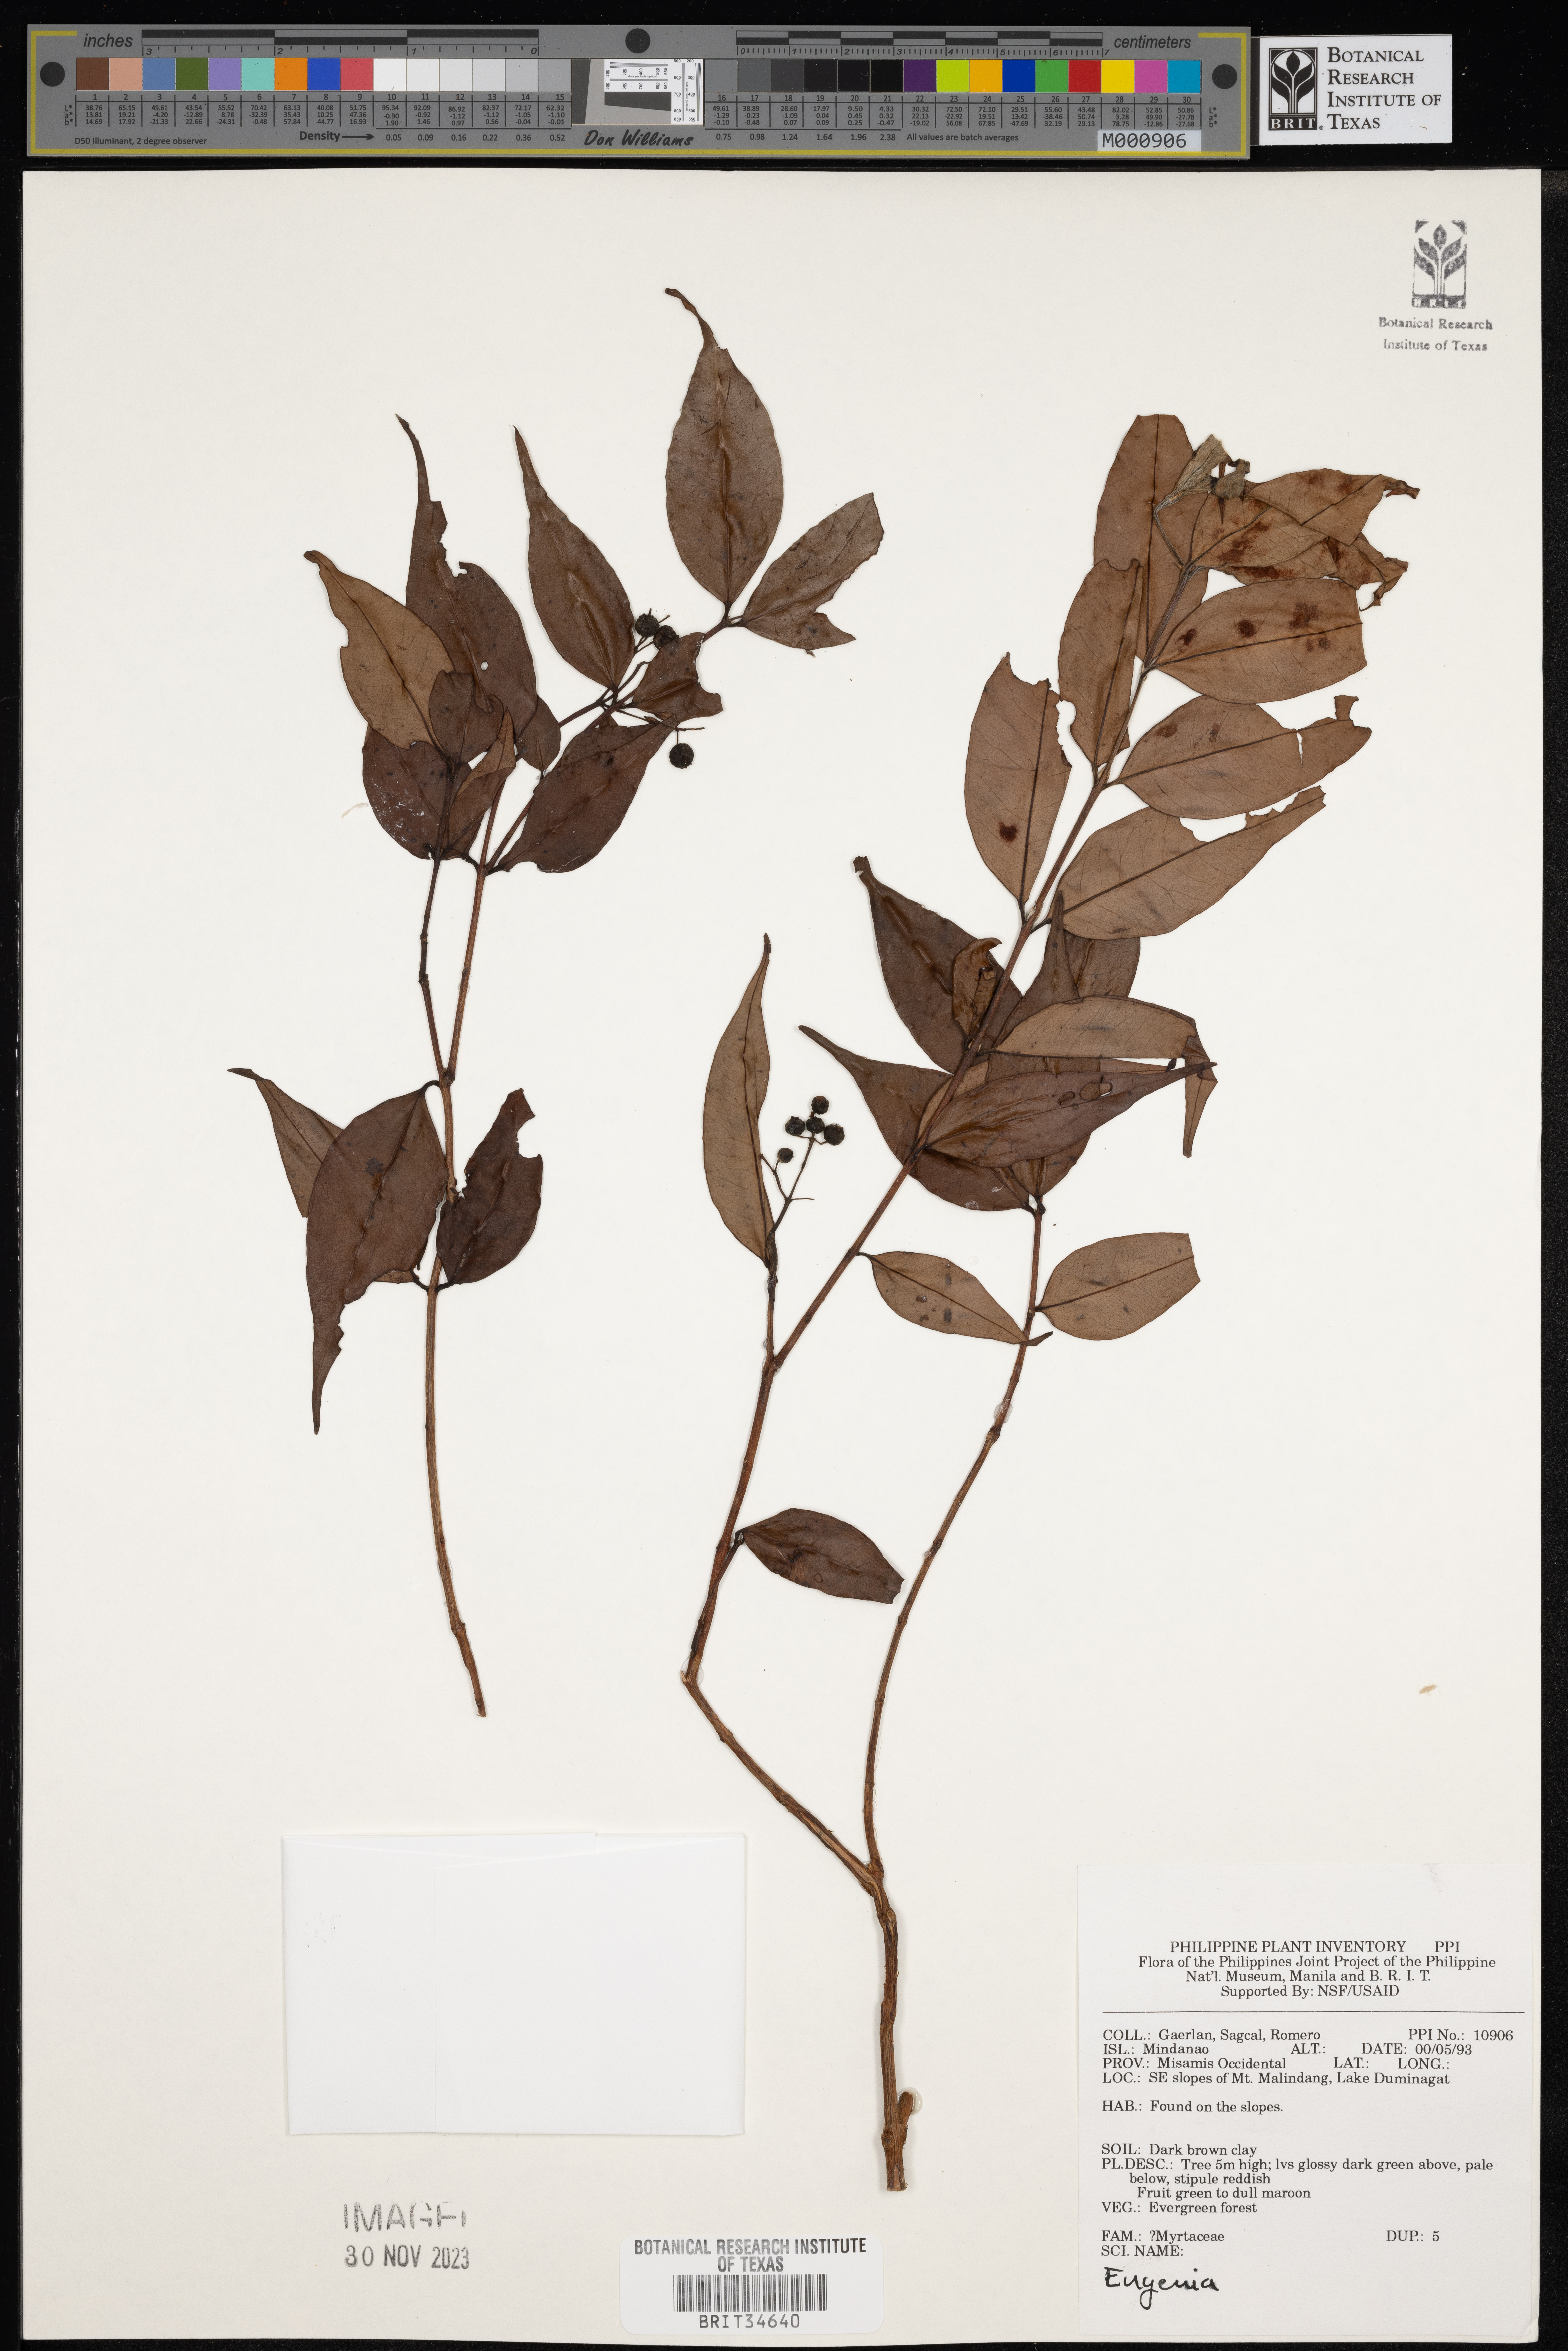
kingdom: Plantae
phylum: Tracheophyta
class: Magnoliopsida
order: Myrtales
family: Myrtaceae
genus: Eugenia
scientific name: Eugenia
